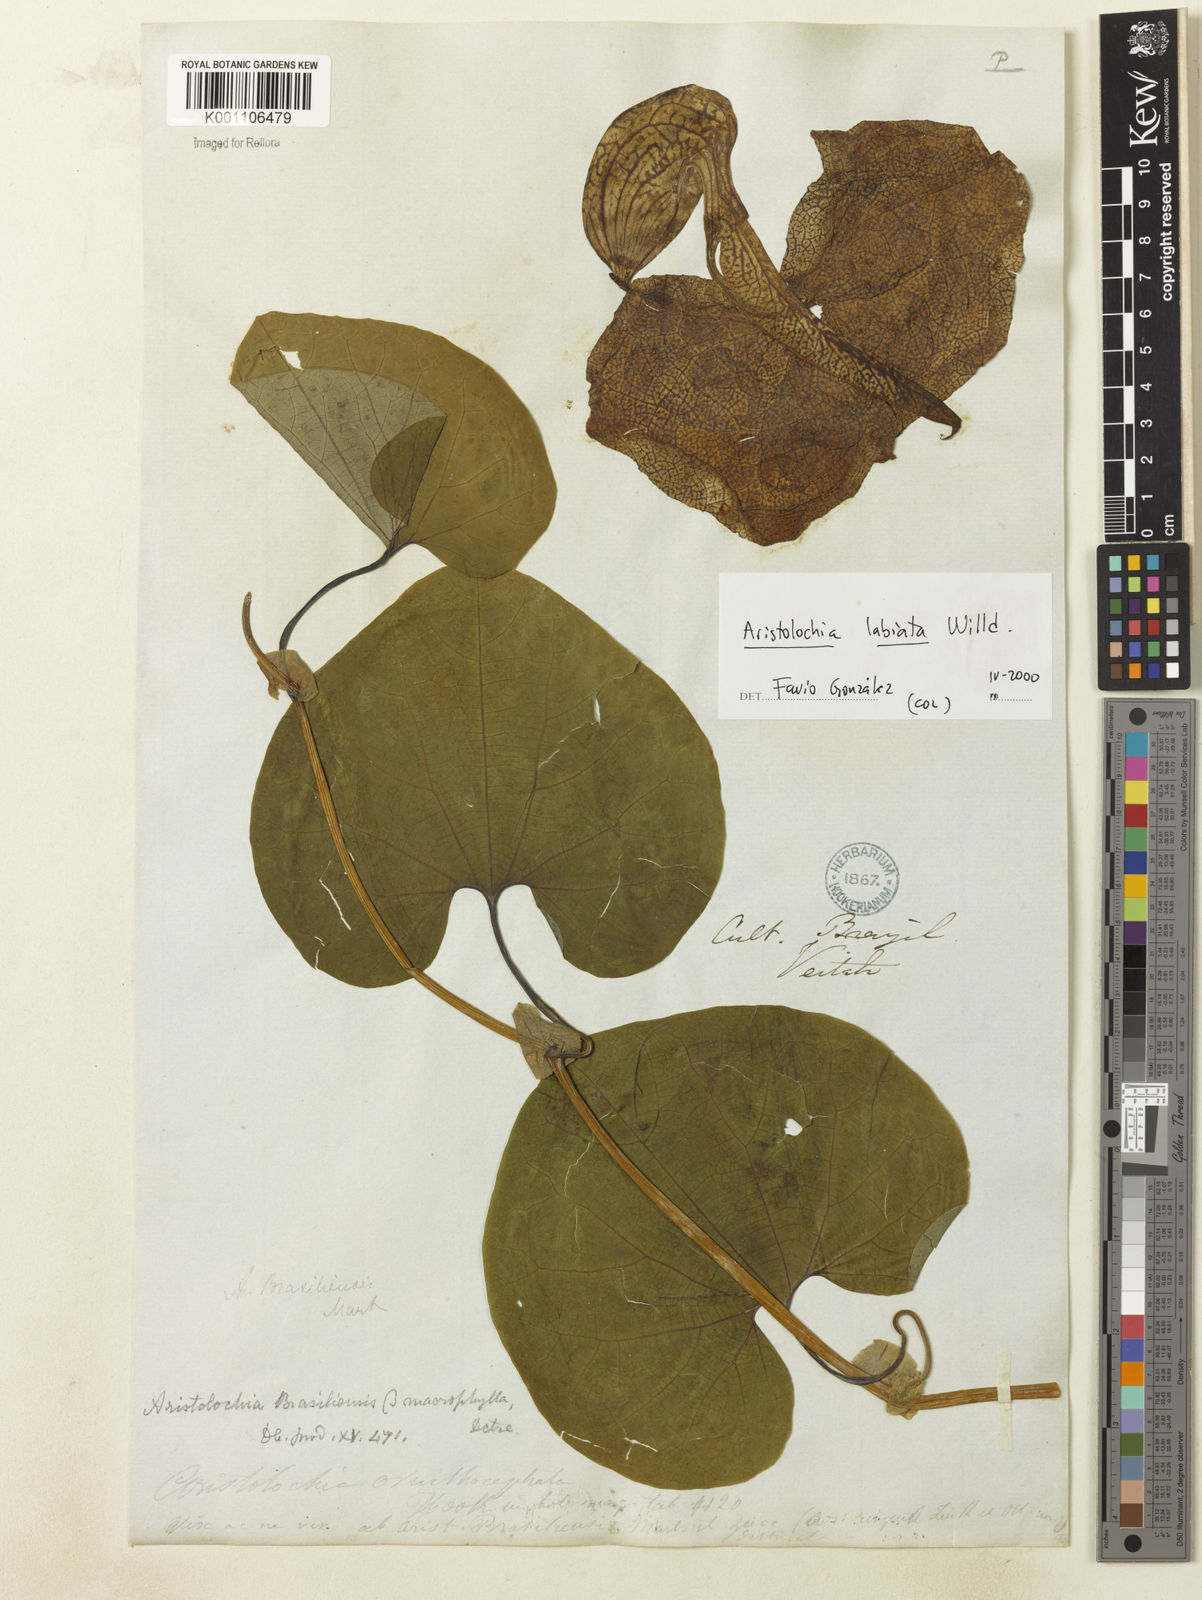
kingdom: Plantae
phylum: Tracheophyta
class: Magnoliopsida
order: Piperales
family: Aristolochiaceae
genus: Aristolochia
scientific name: Aristolochia labiata
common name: Mottled dutchman's pipe
